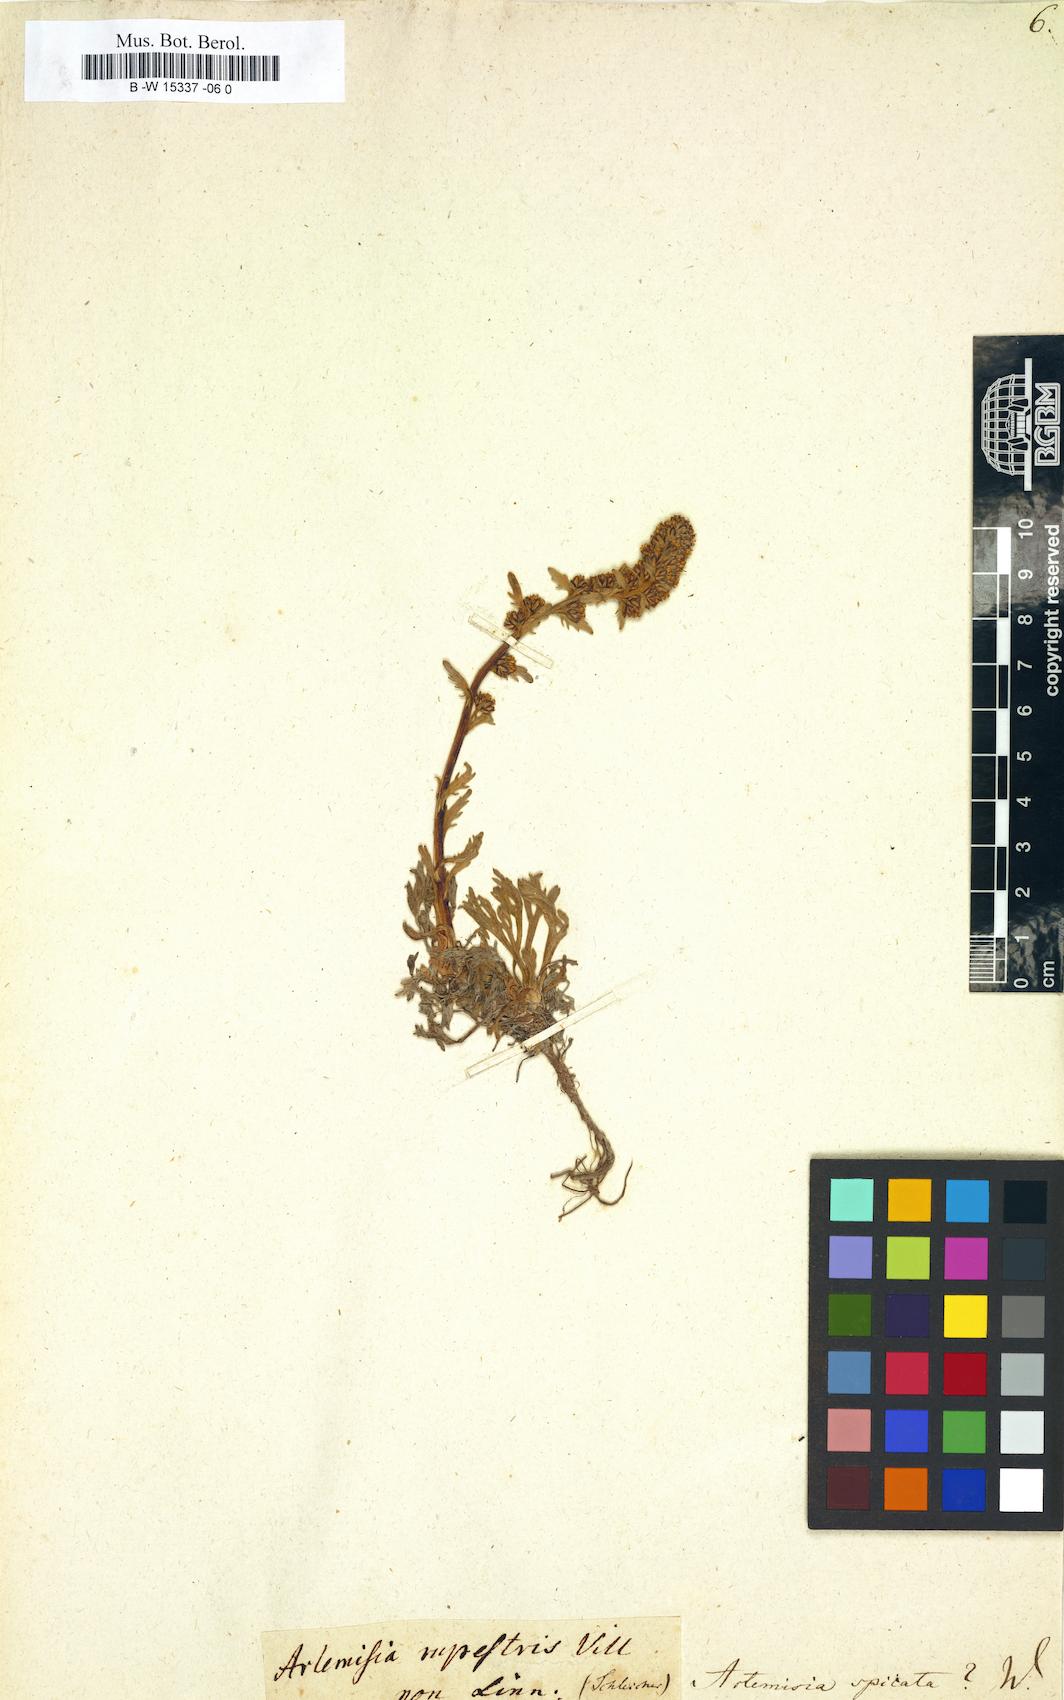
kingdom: Plantae
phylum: Tracheophyta
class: Magnoliopsida
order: Asterales
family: Asteraceae
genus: Artemisia
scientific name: Artemisia genipi
